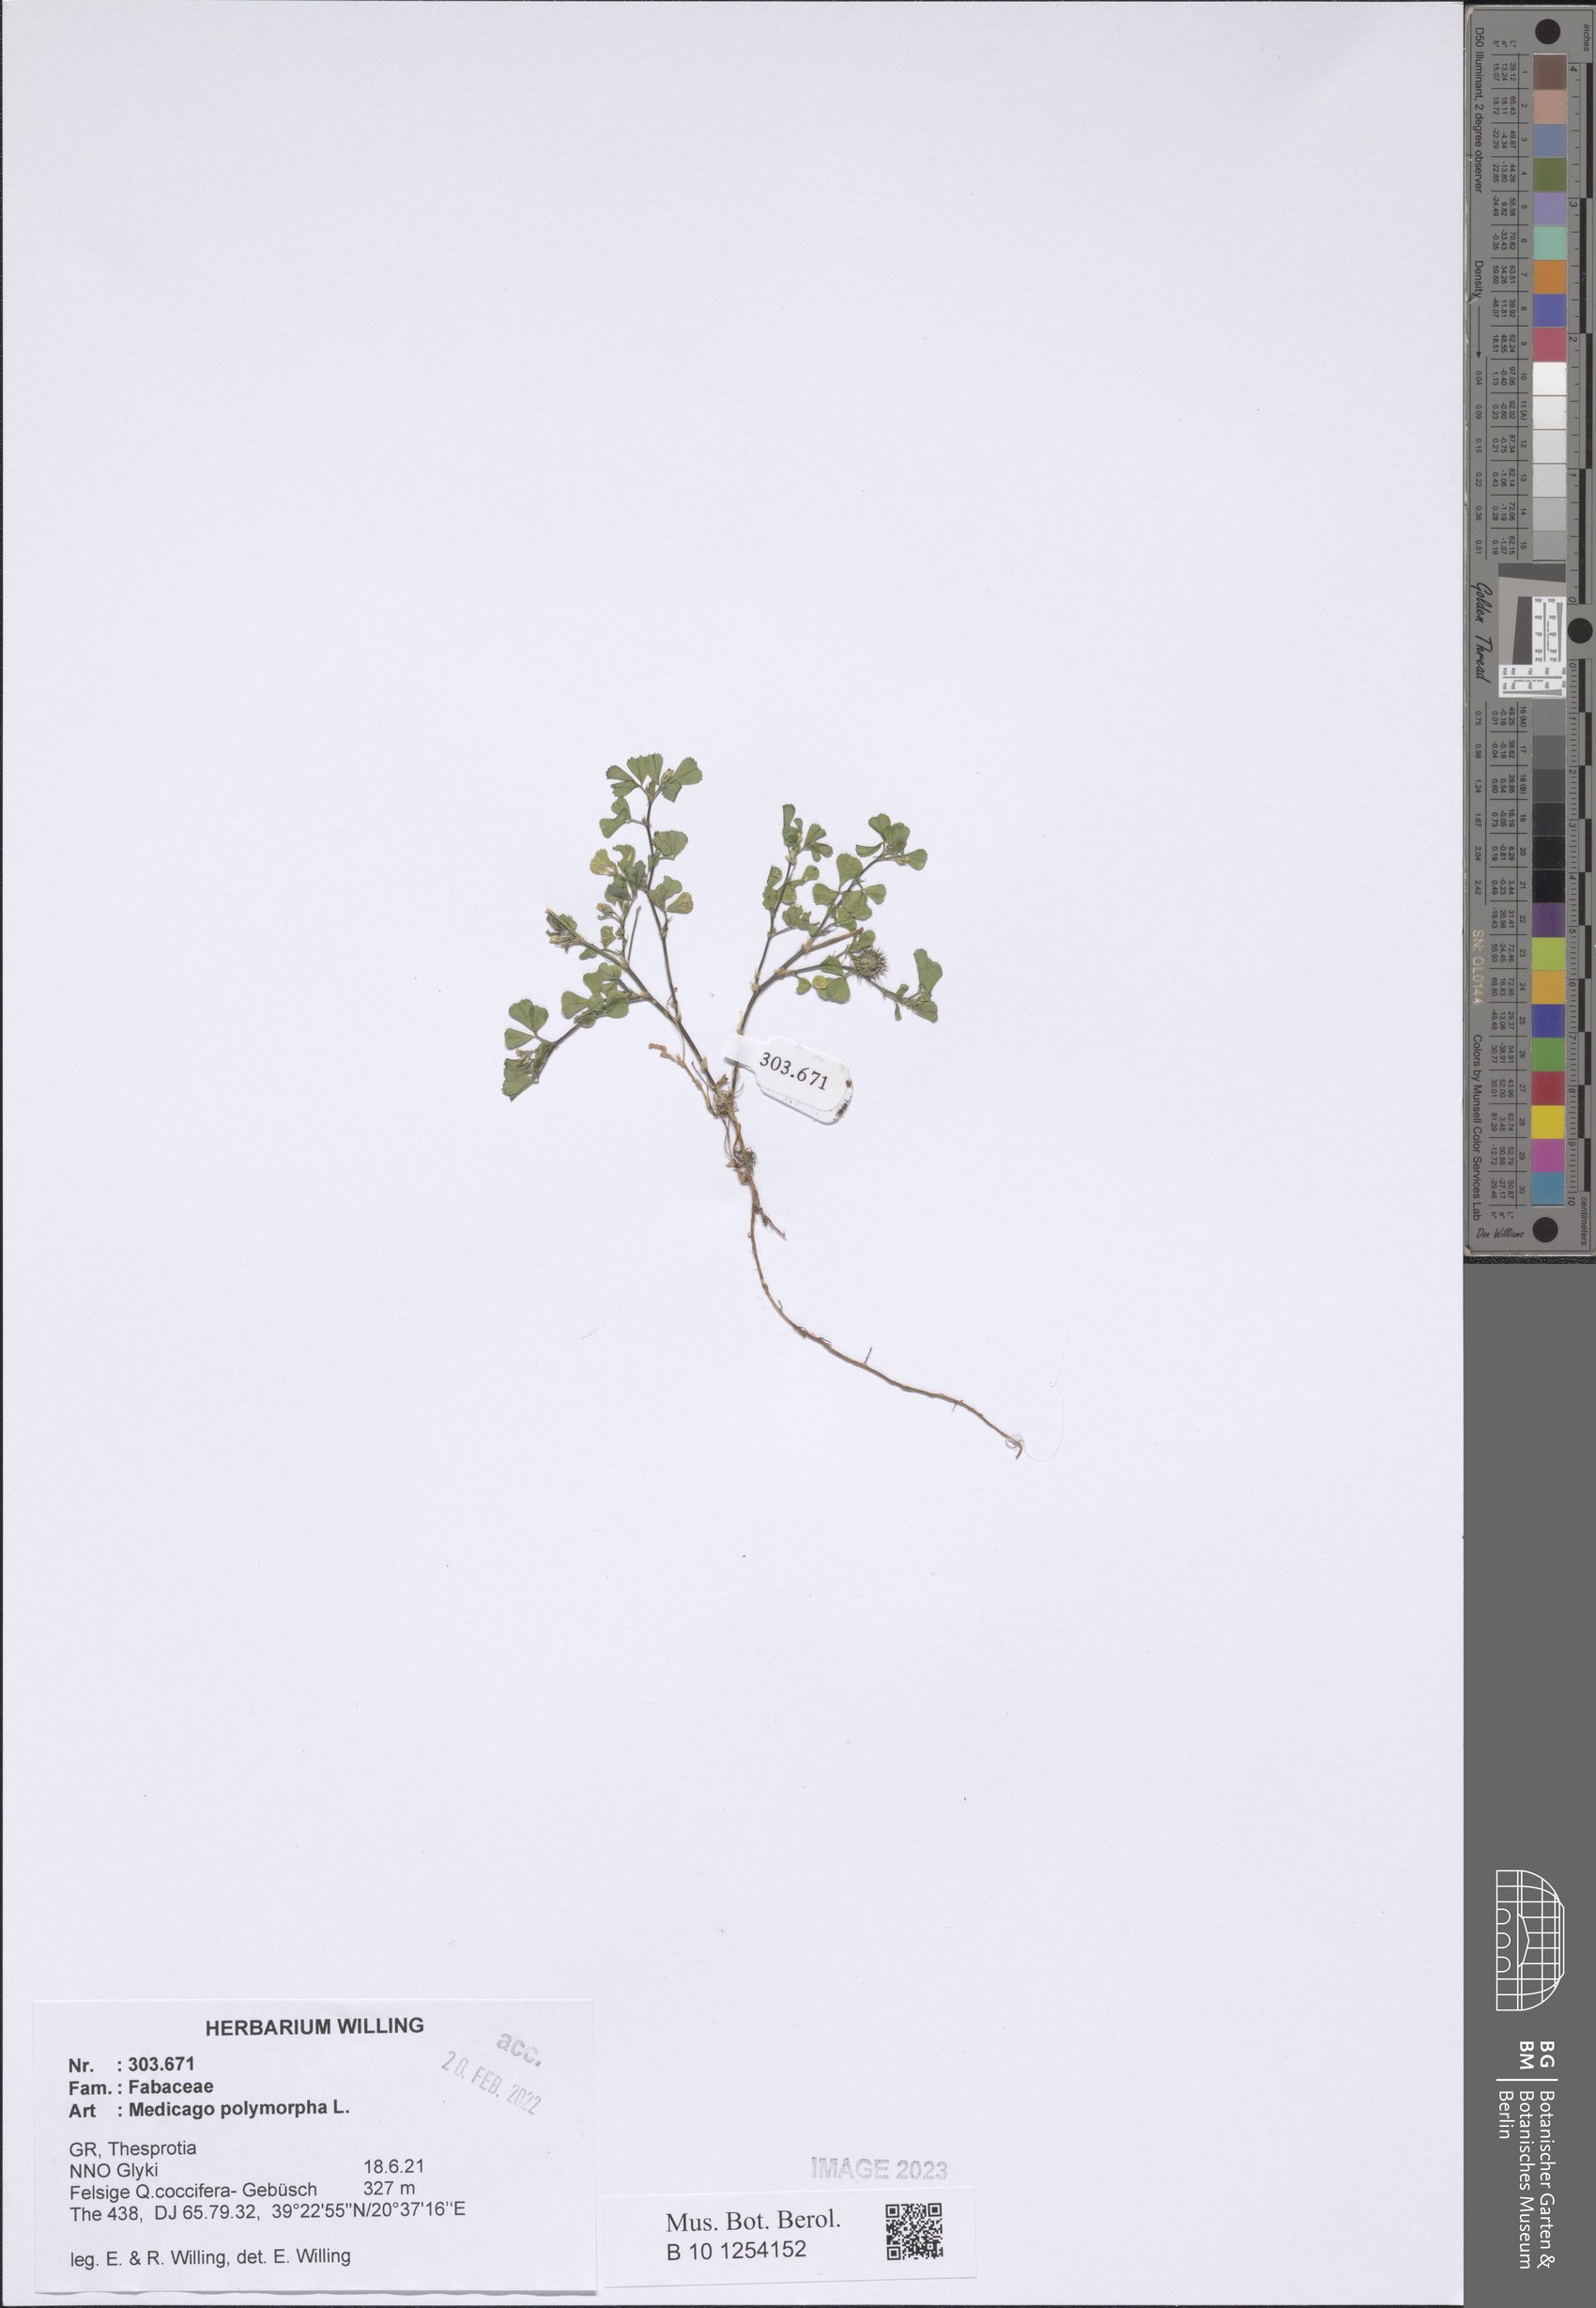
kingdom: Plantae
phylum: Tracheophyta
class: Magnoliopsida
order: Fabales
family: Fabaceae
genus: Medicago
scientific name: Medicago polymorpha
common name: Burclover
